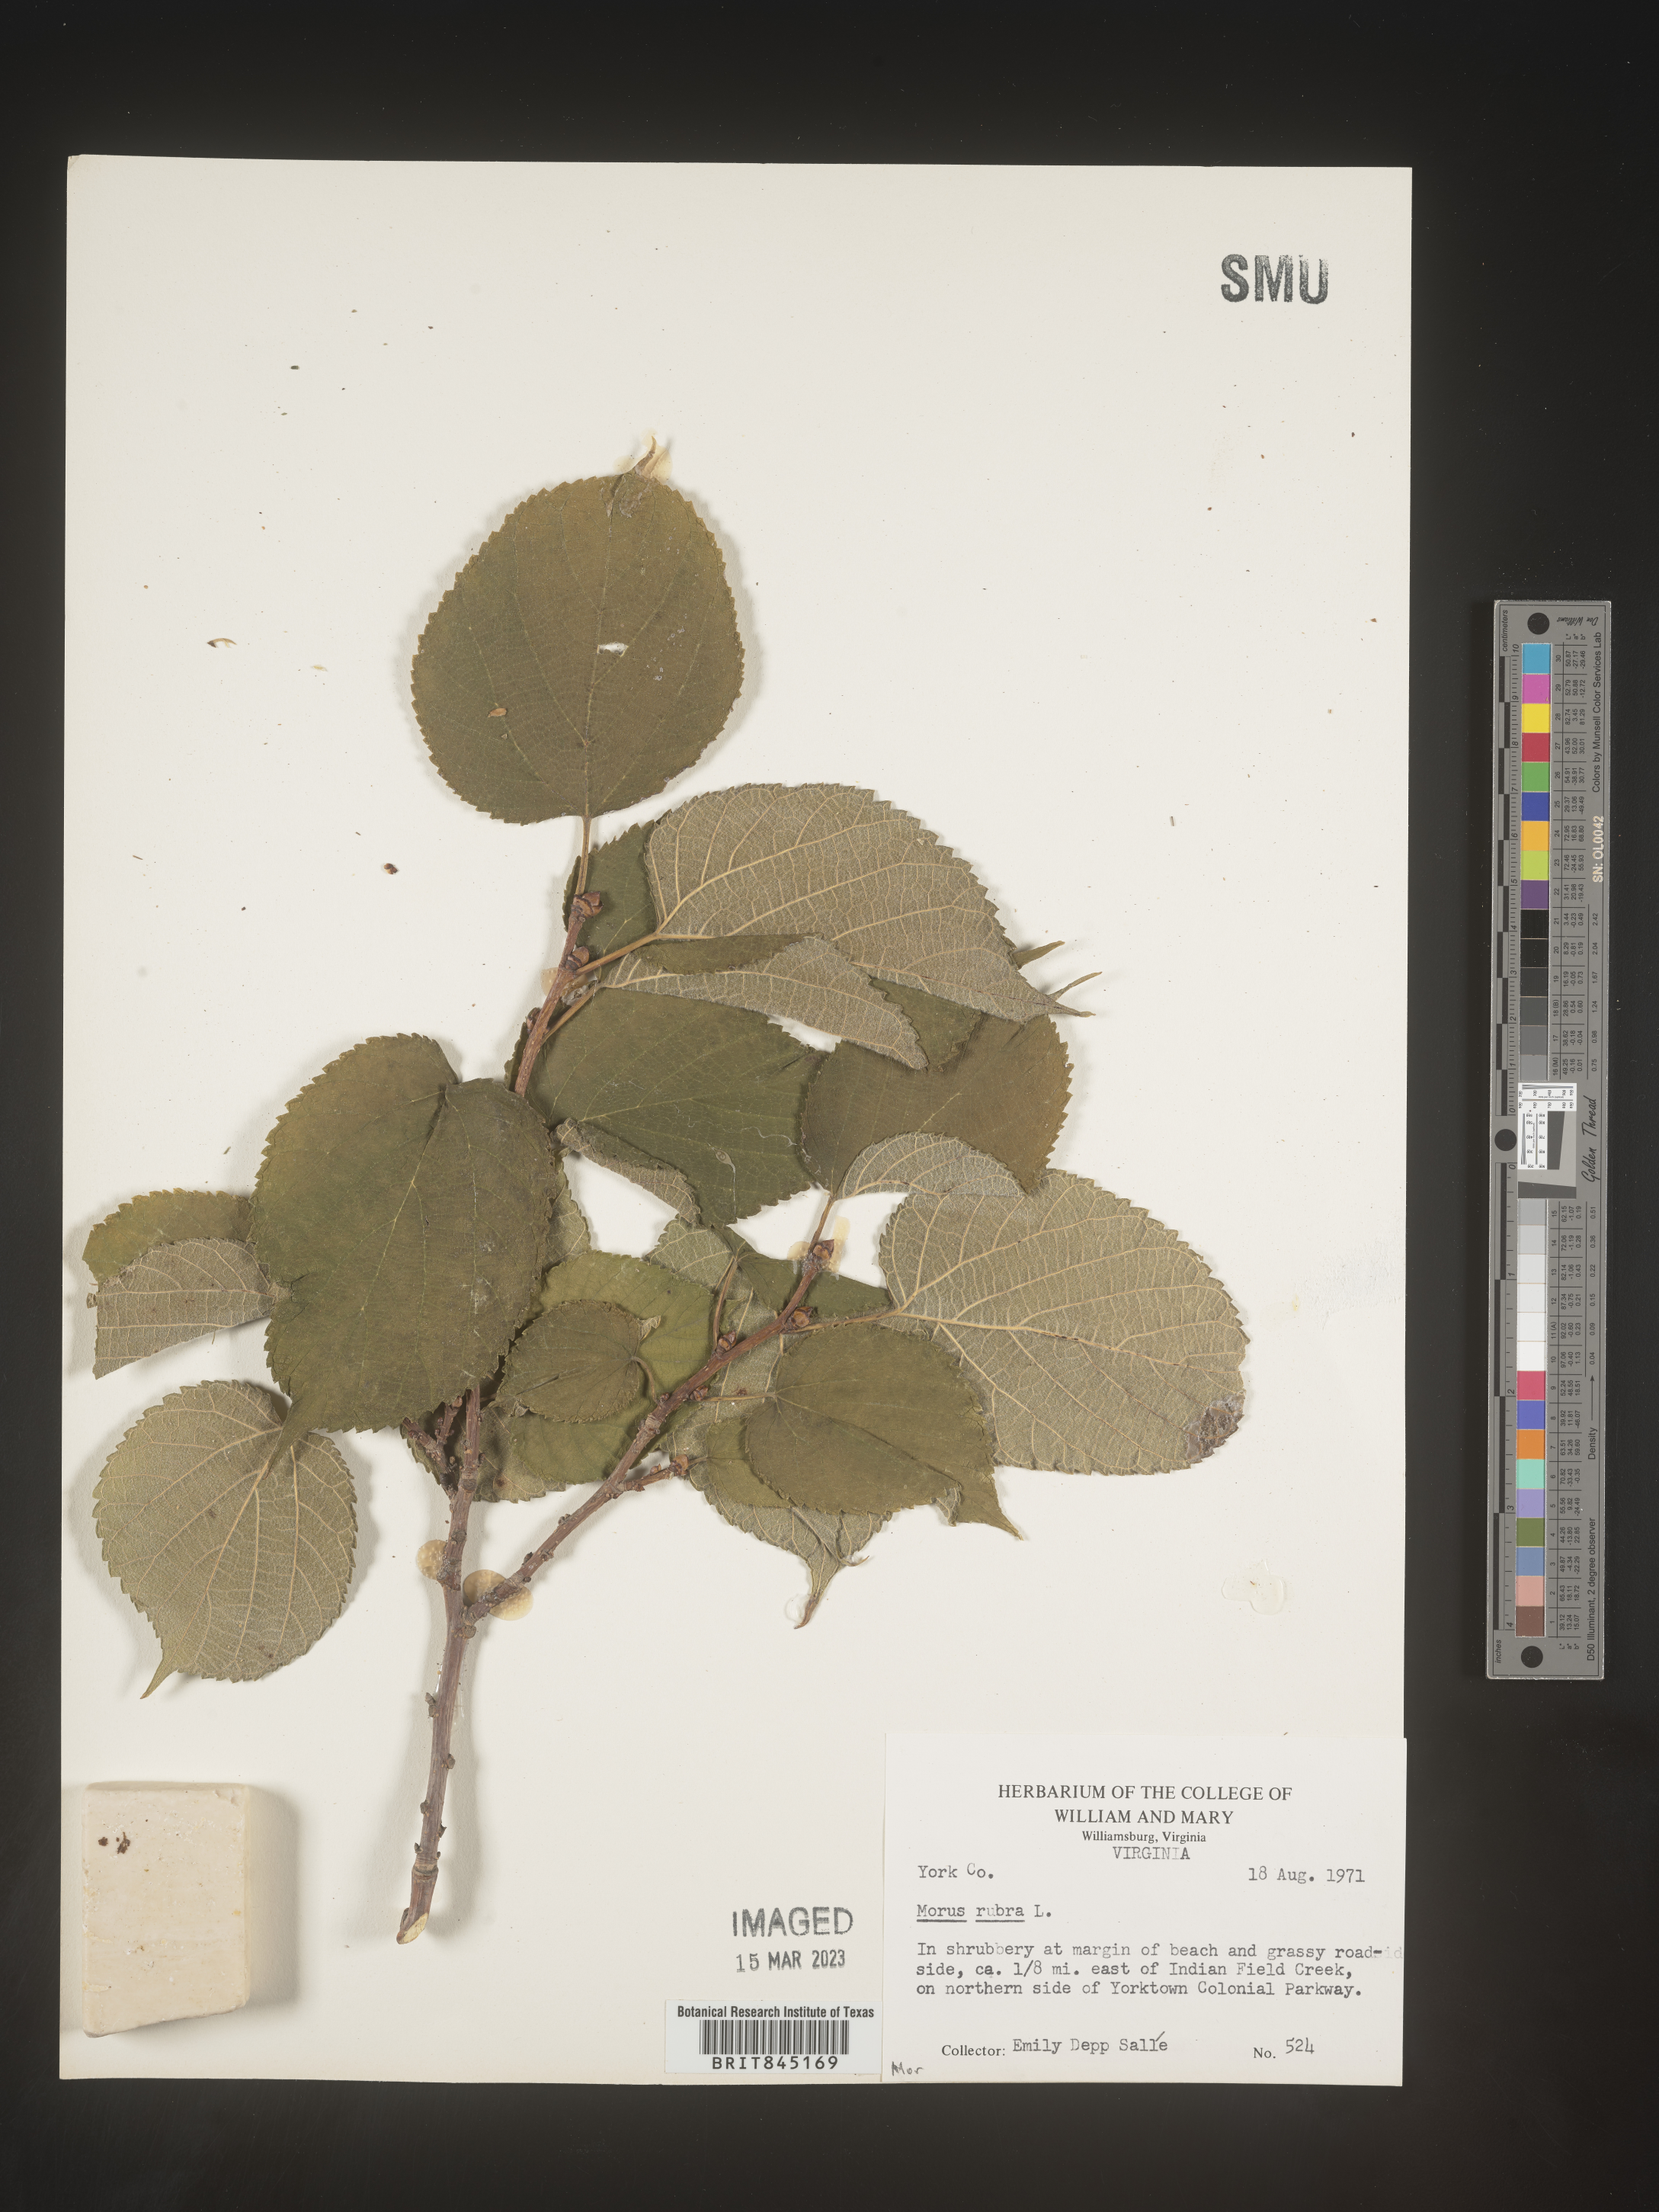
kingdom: Plantae
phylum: Tracheophyta
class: Magnoliopsida
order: Rosales
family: Moraceae
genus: Morus
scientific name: Morus rubra
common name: Red mulberry
